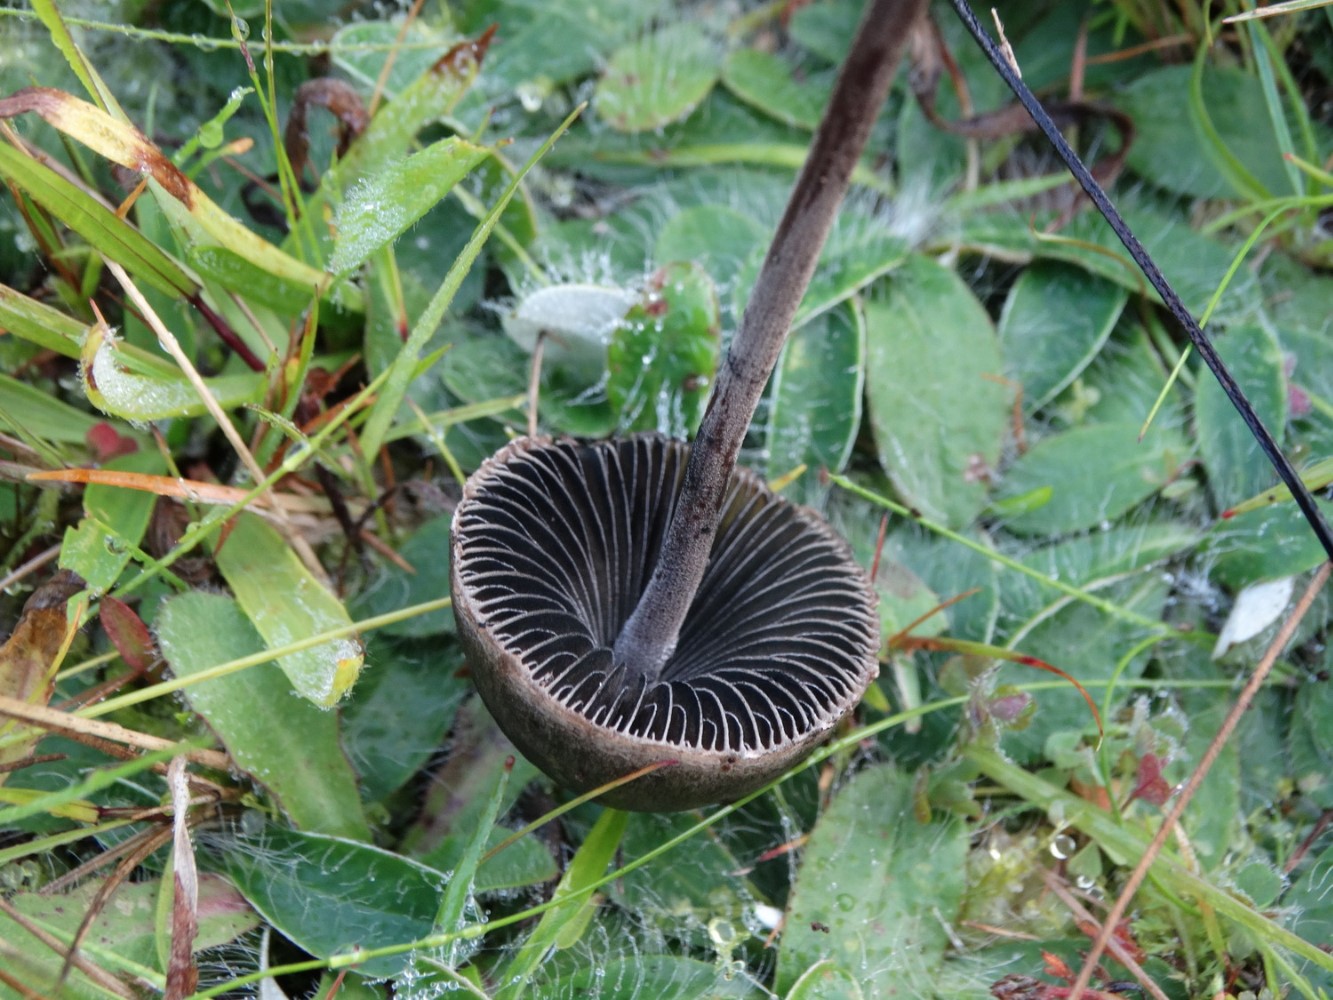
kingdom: Fungi
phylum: Basidiomycota
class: Agaricomycetes
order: Agaricales
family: Bolbitiaceae
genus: Panaeolus
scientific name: Panaeolus papilionaceus
